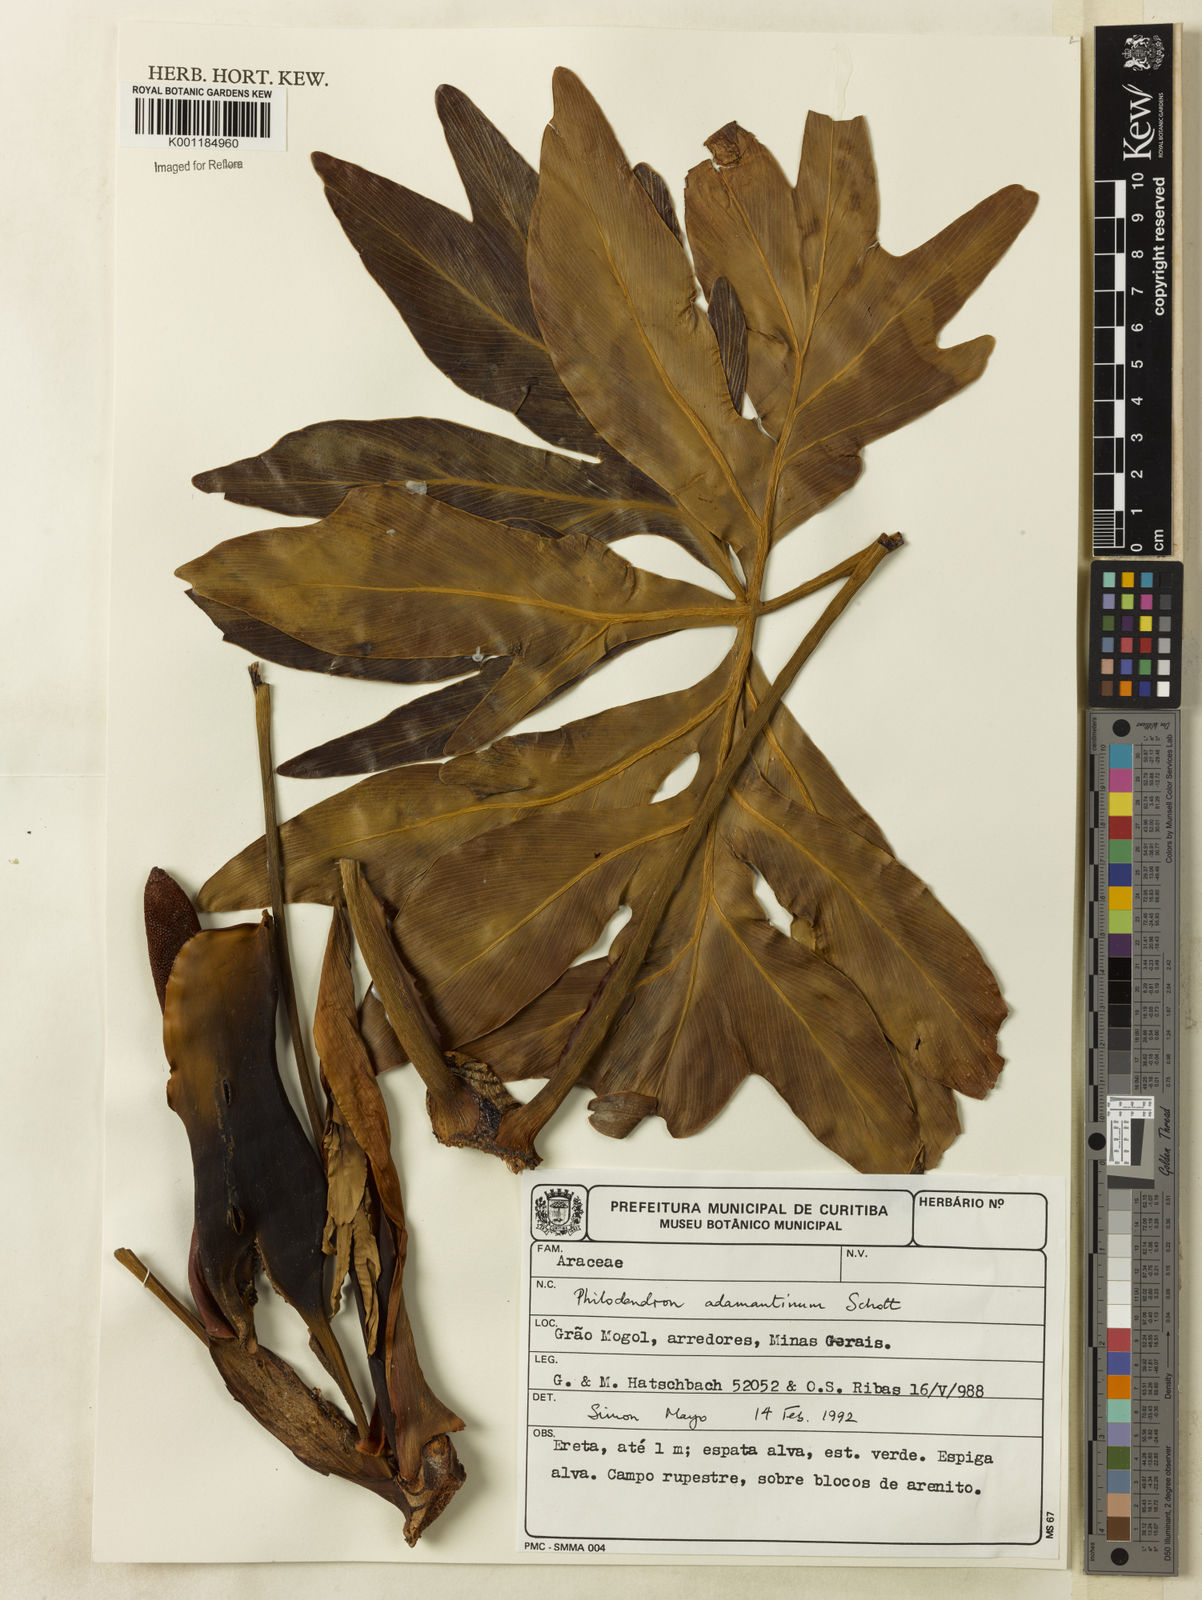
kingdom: Plantae
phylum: Tracheophyta
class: Liliopsida
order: Alismatales
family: Araceae
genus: Thaumatophyllum
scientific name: Thaumatophyllum adamantinum
